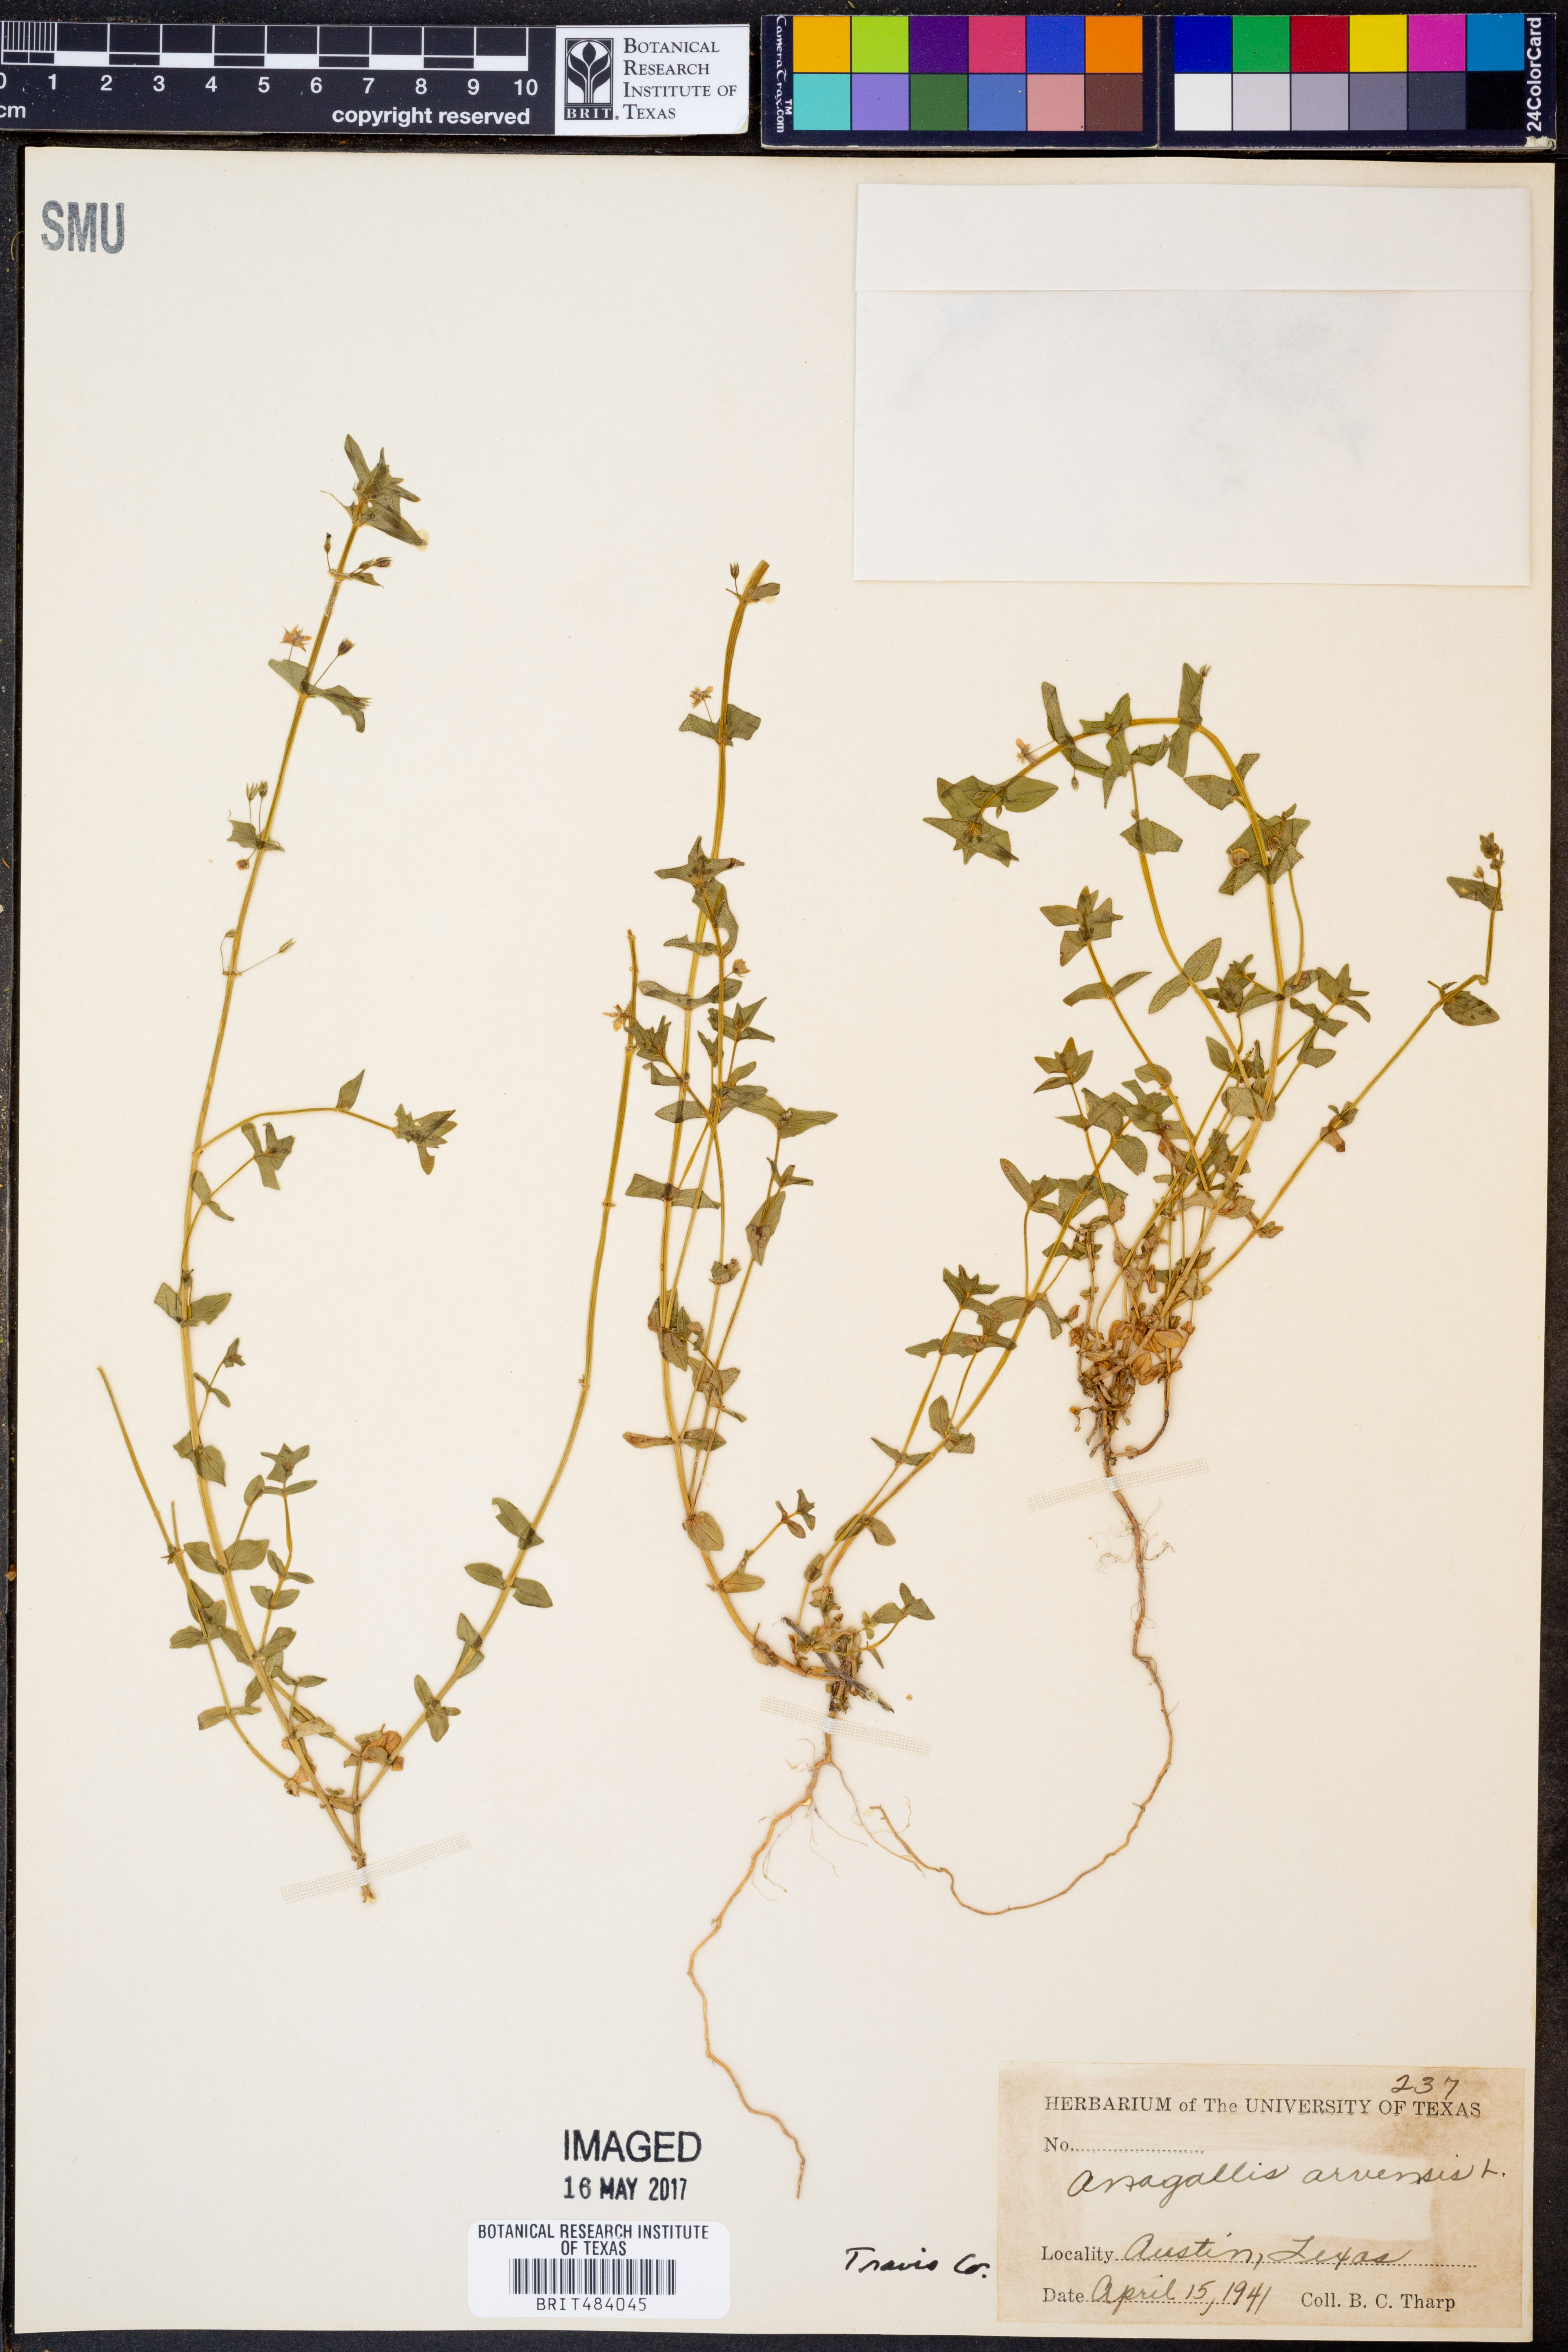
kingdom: Plantae
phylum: Tracheophyta
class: Magnoliopsida
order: Ericales
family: Primulaceae
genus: Lysimachia
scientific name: Lysimachia arvensis
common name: Scarlet pimpernel
